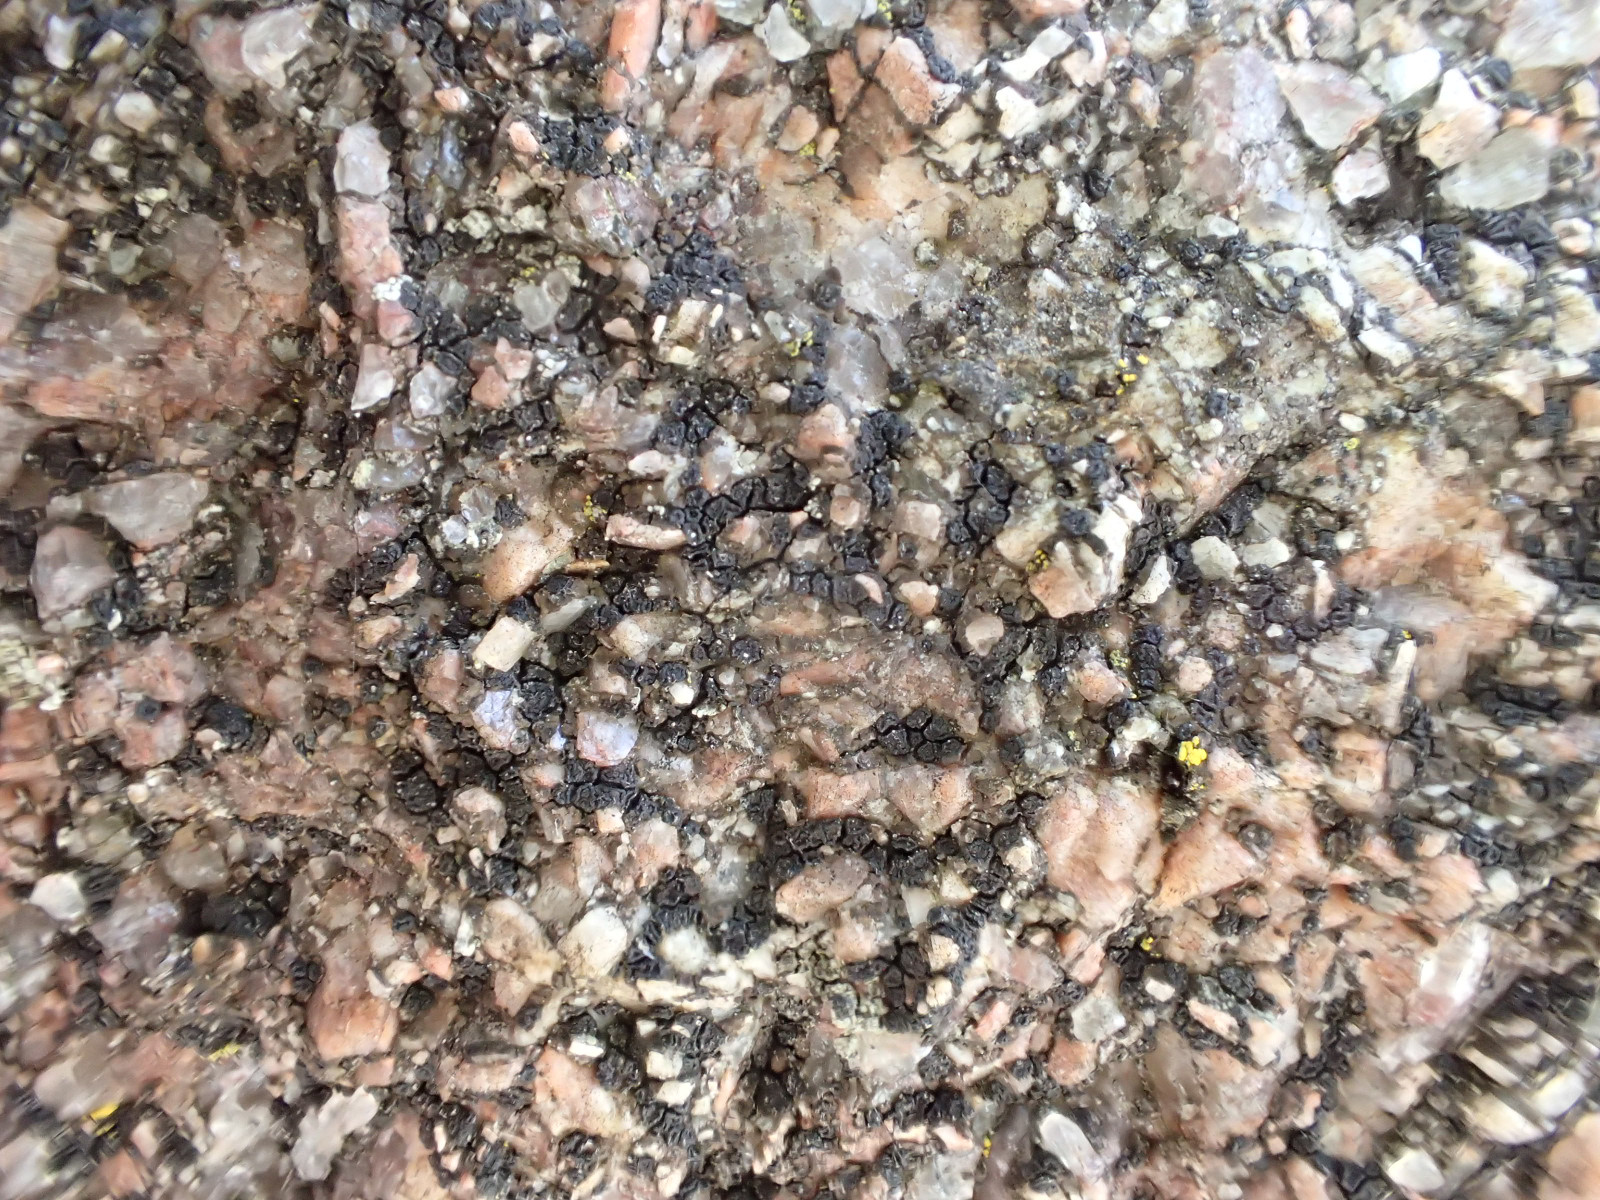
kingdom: Fungi
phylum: Ascomycota
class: Lecanoromycetes
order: Acarosporales
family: Acarosporaceae
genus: Acarospora
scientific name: Acarospora privigna
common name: sort foldekantlav
